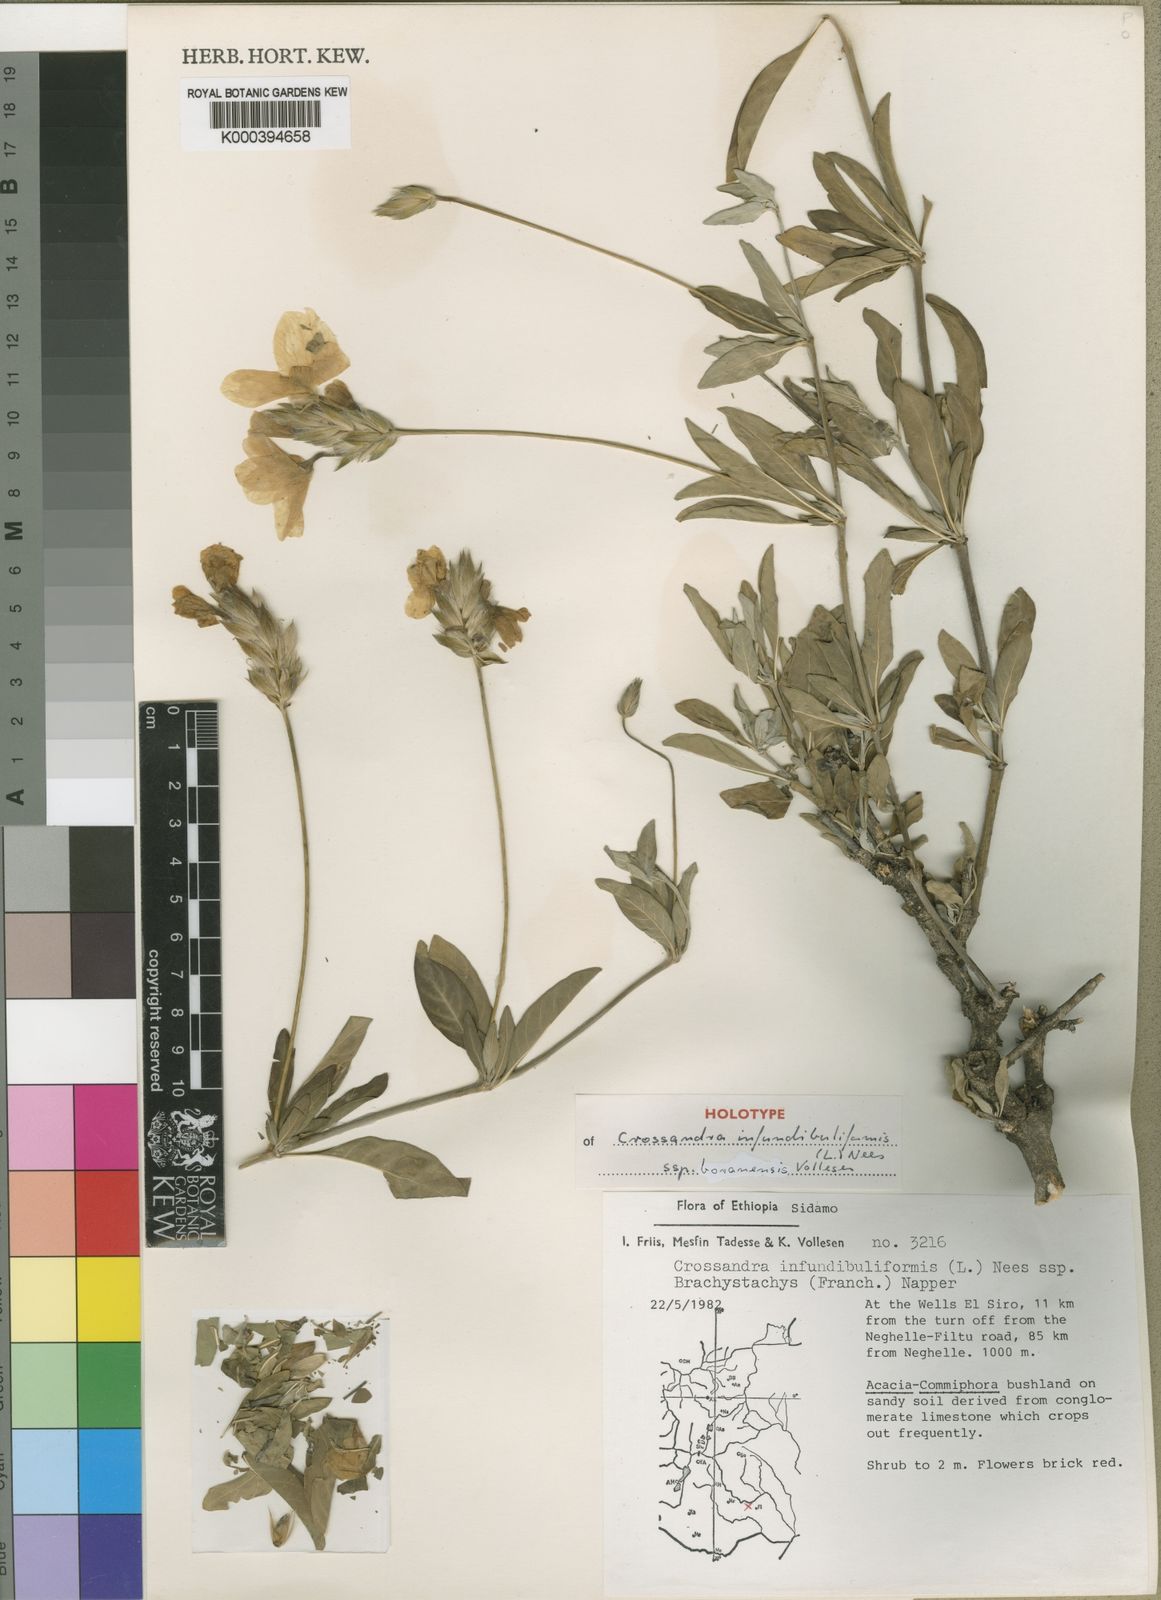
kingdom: Plantae
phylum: Tracheophyta
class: Magnoliopsida
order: Lamiales
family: Acanthaceae
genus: Crossandra
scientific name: Crossandra infundibuliformis
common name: Firecracker-flower
